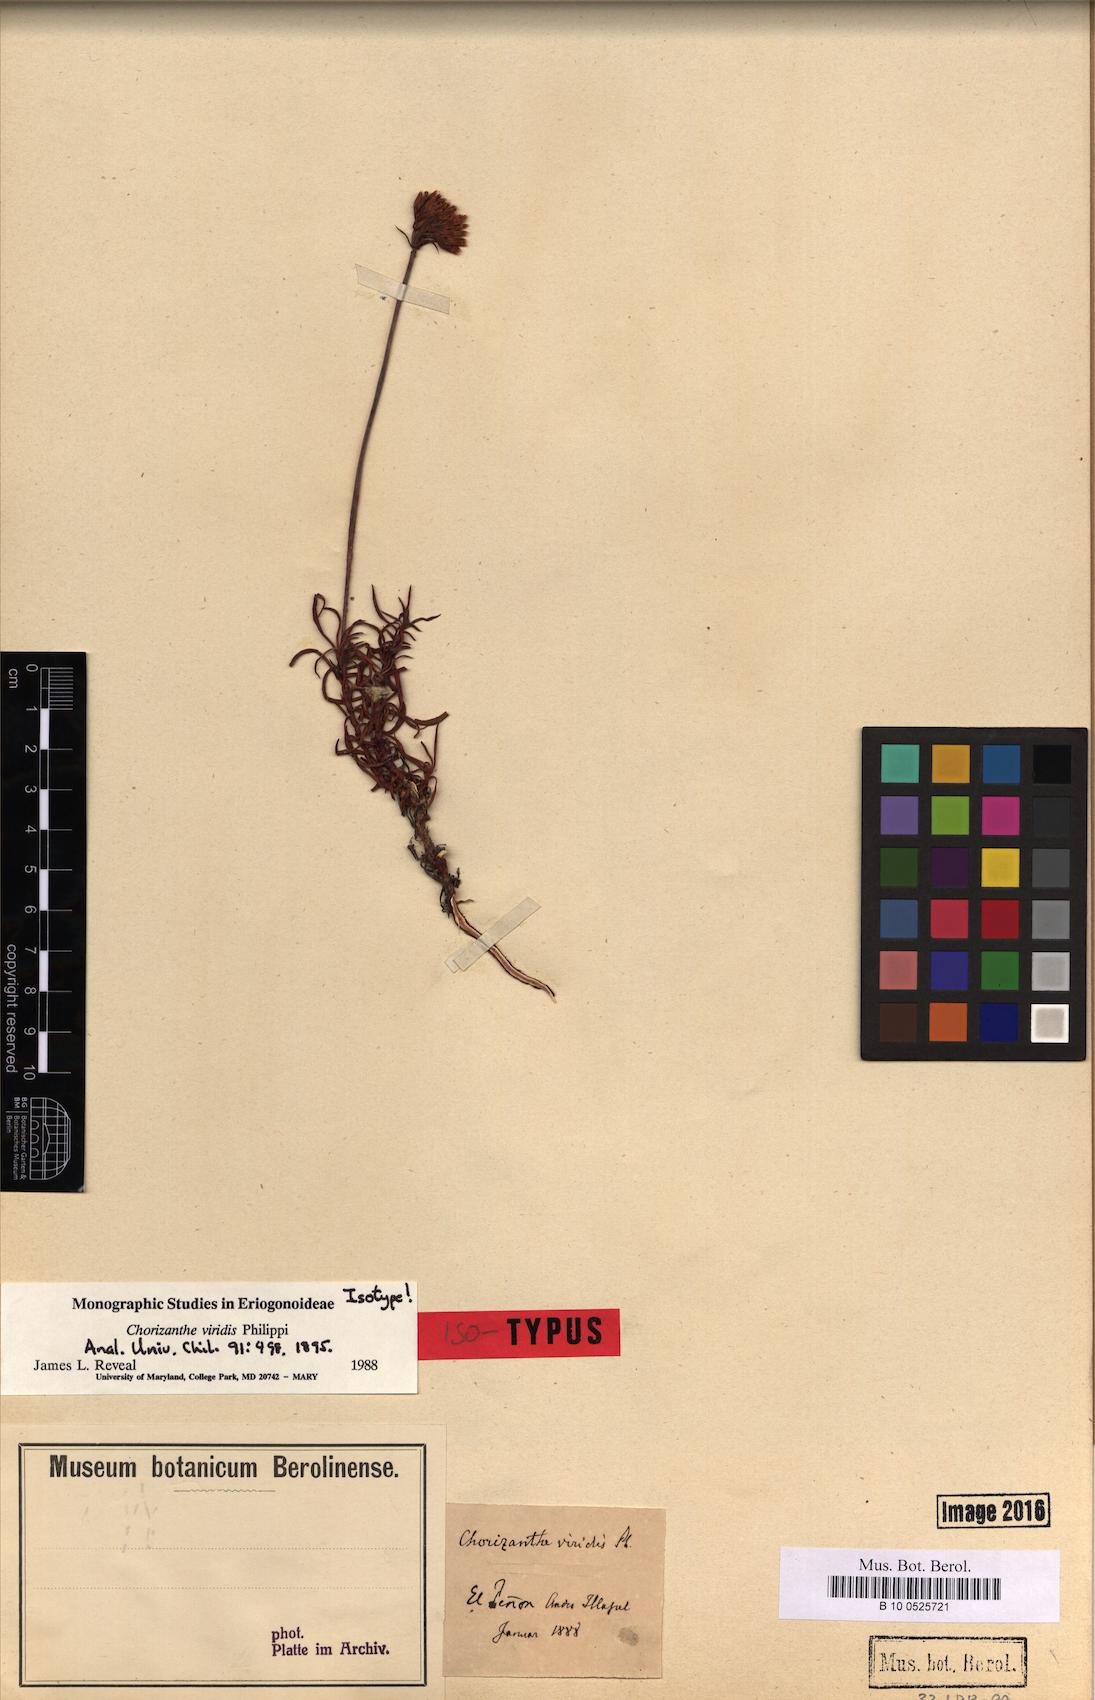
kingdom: Plantae
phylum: Tracheophyta
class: Magnoliopsida
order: Caryophyllales
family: Polygonaceae
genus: Chorizanthe
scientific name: Chorizanthe viridis
